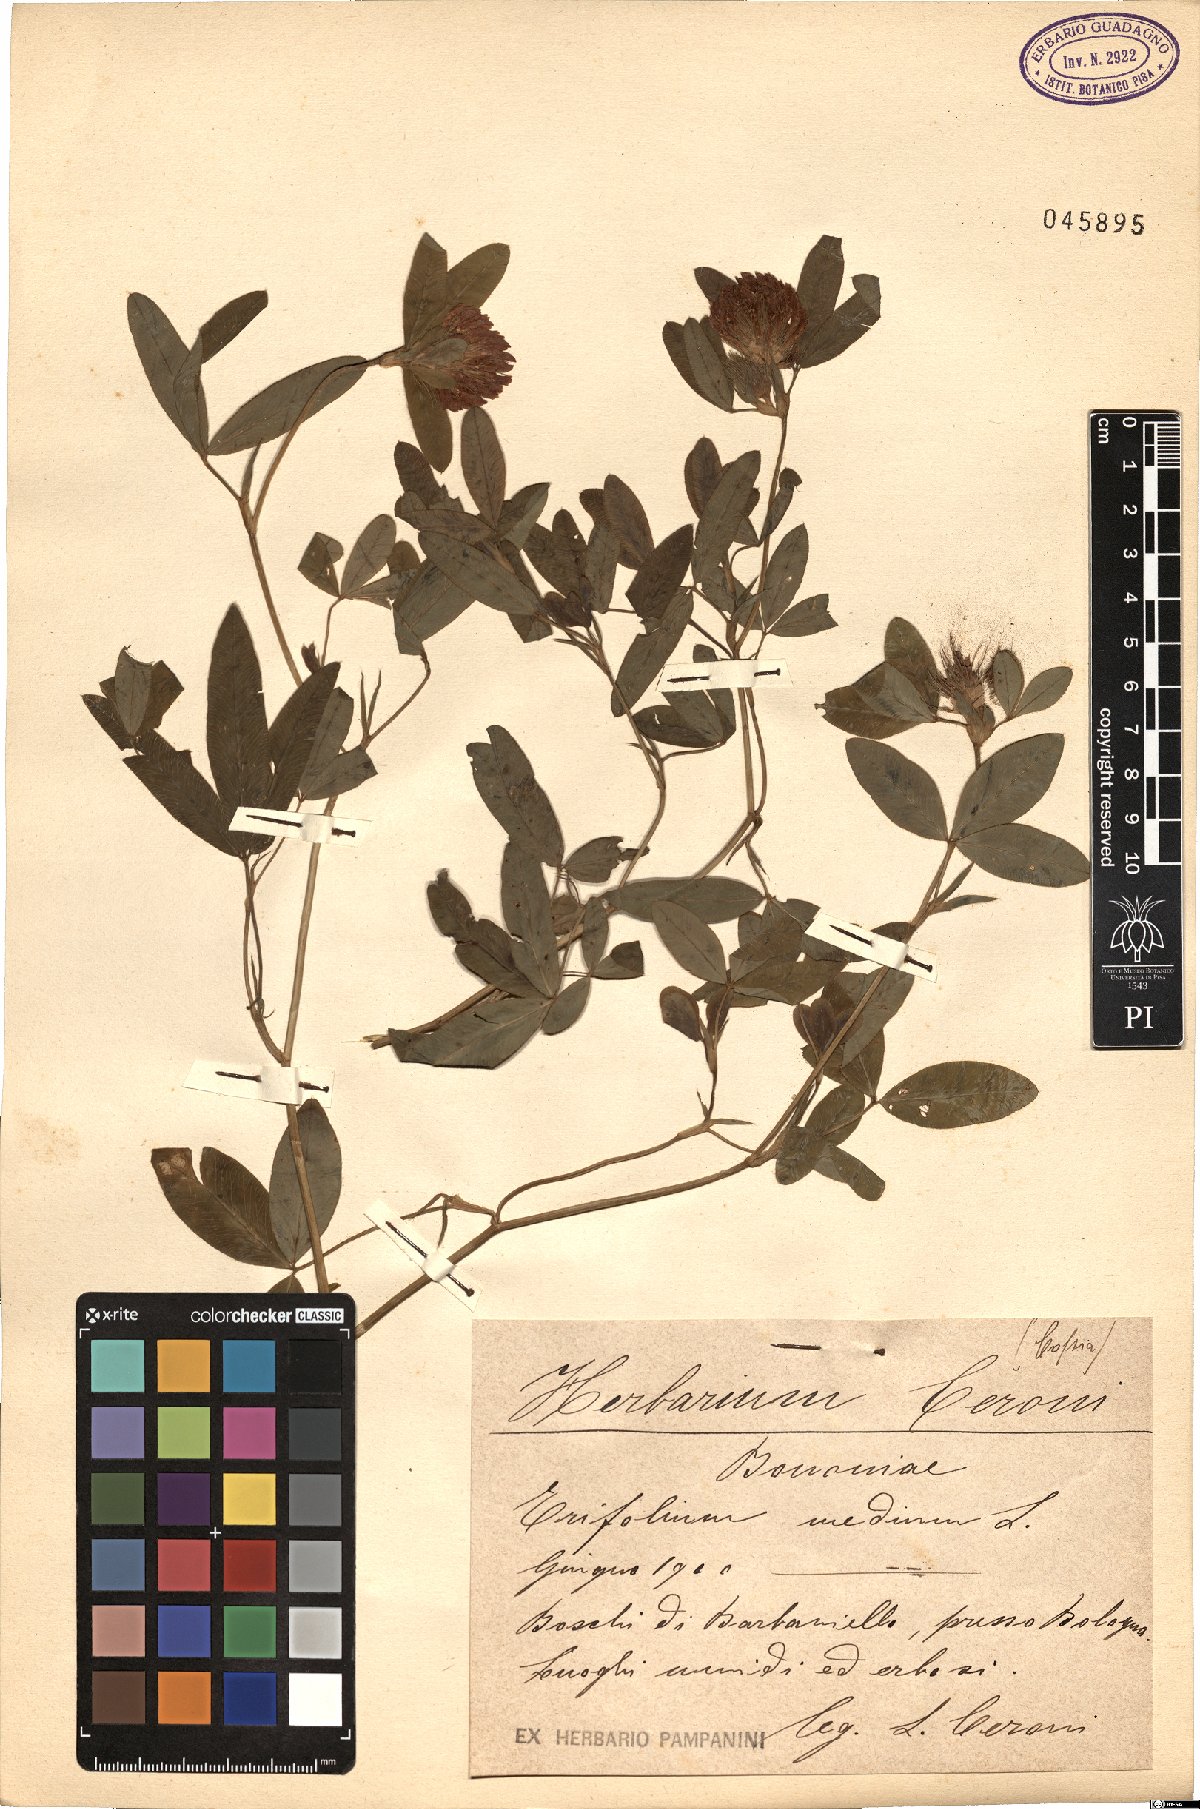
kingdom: Plantae
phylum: Tracheophyta
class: Magnoliopsida
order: Fabales
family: Fabaceae
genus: Trifolium
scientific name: Trifolium medium
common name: Zigzag clover
